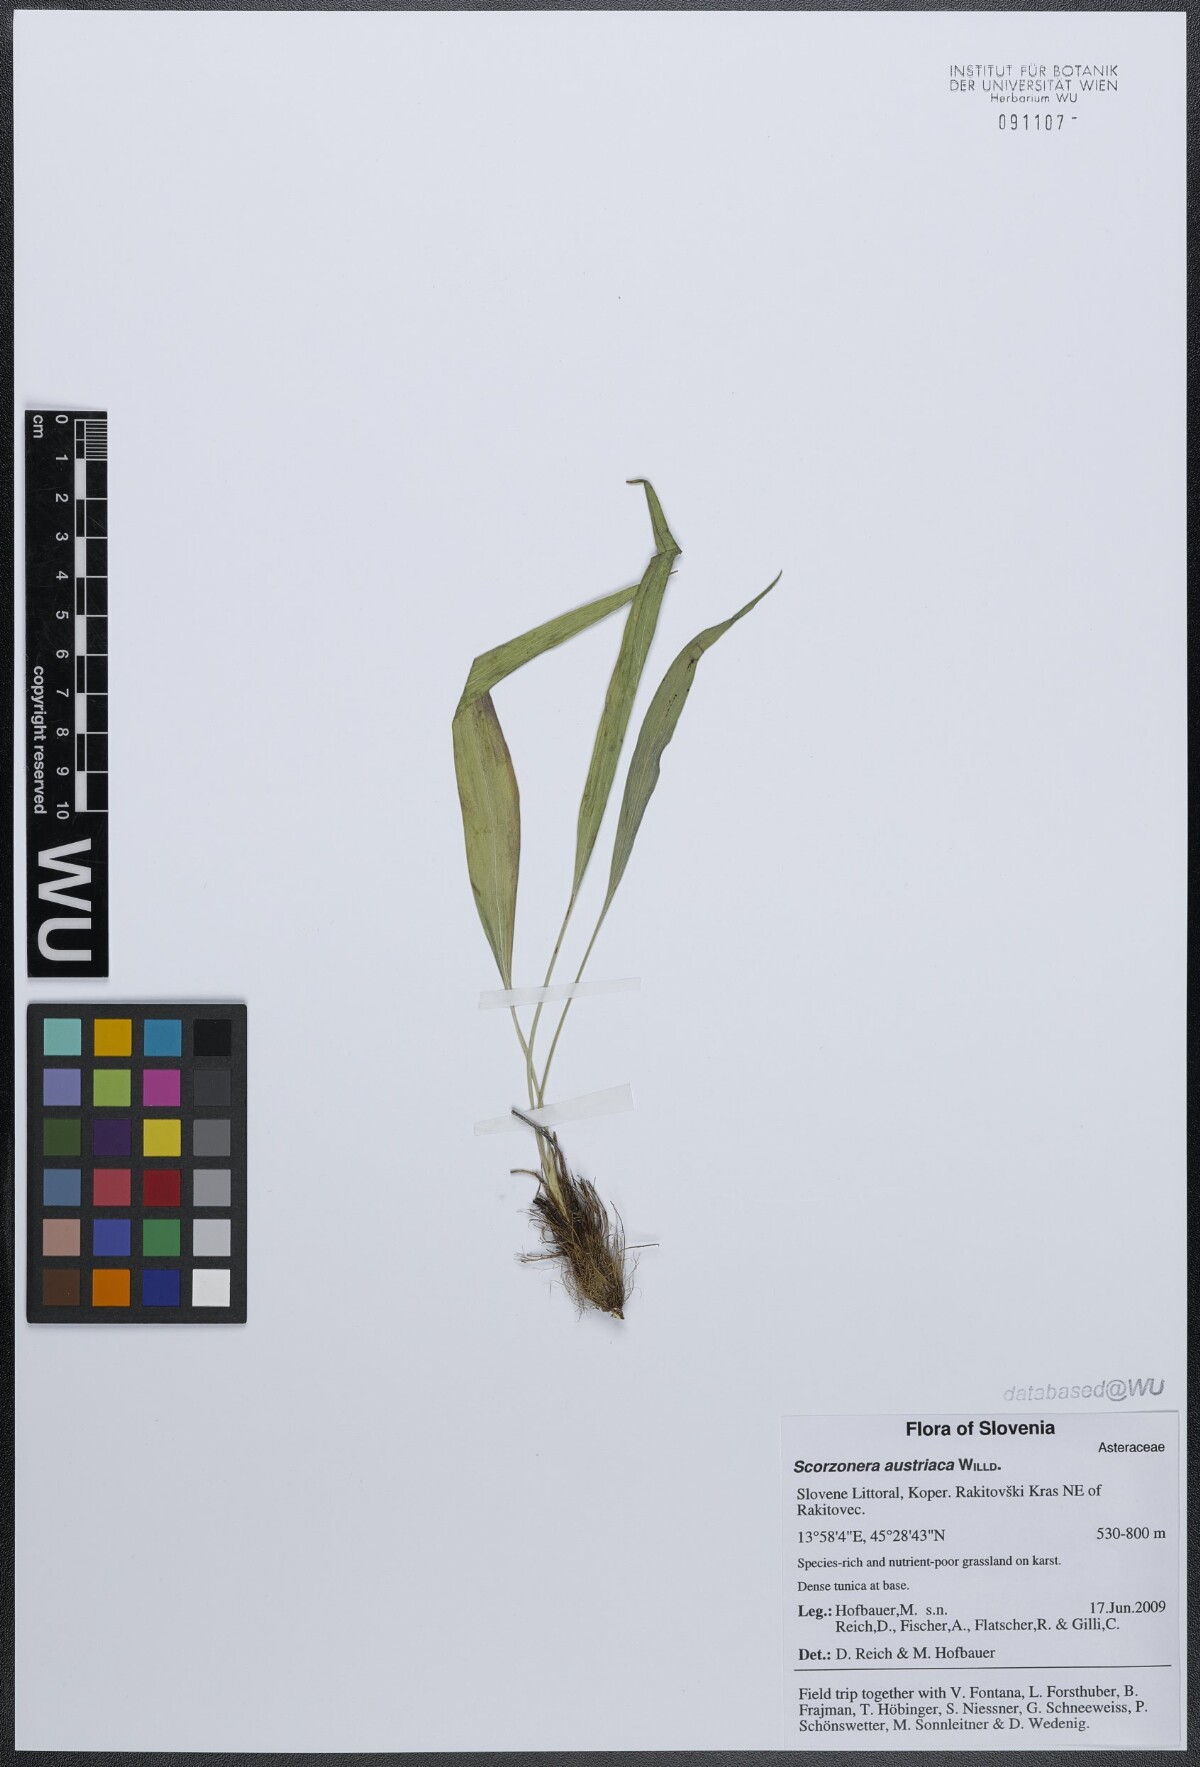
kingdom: Plantae
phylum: Tracheophyta
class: Magnoliopsida
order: Asterales
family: Asteraceae
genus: Takhtajaniantha
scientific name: Takhtajaniantha austriaca
